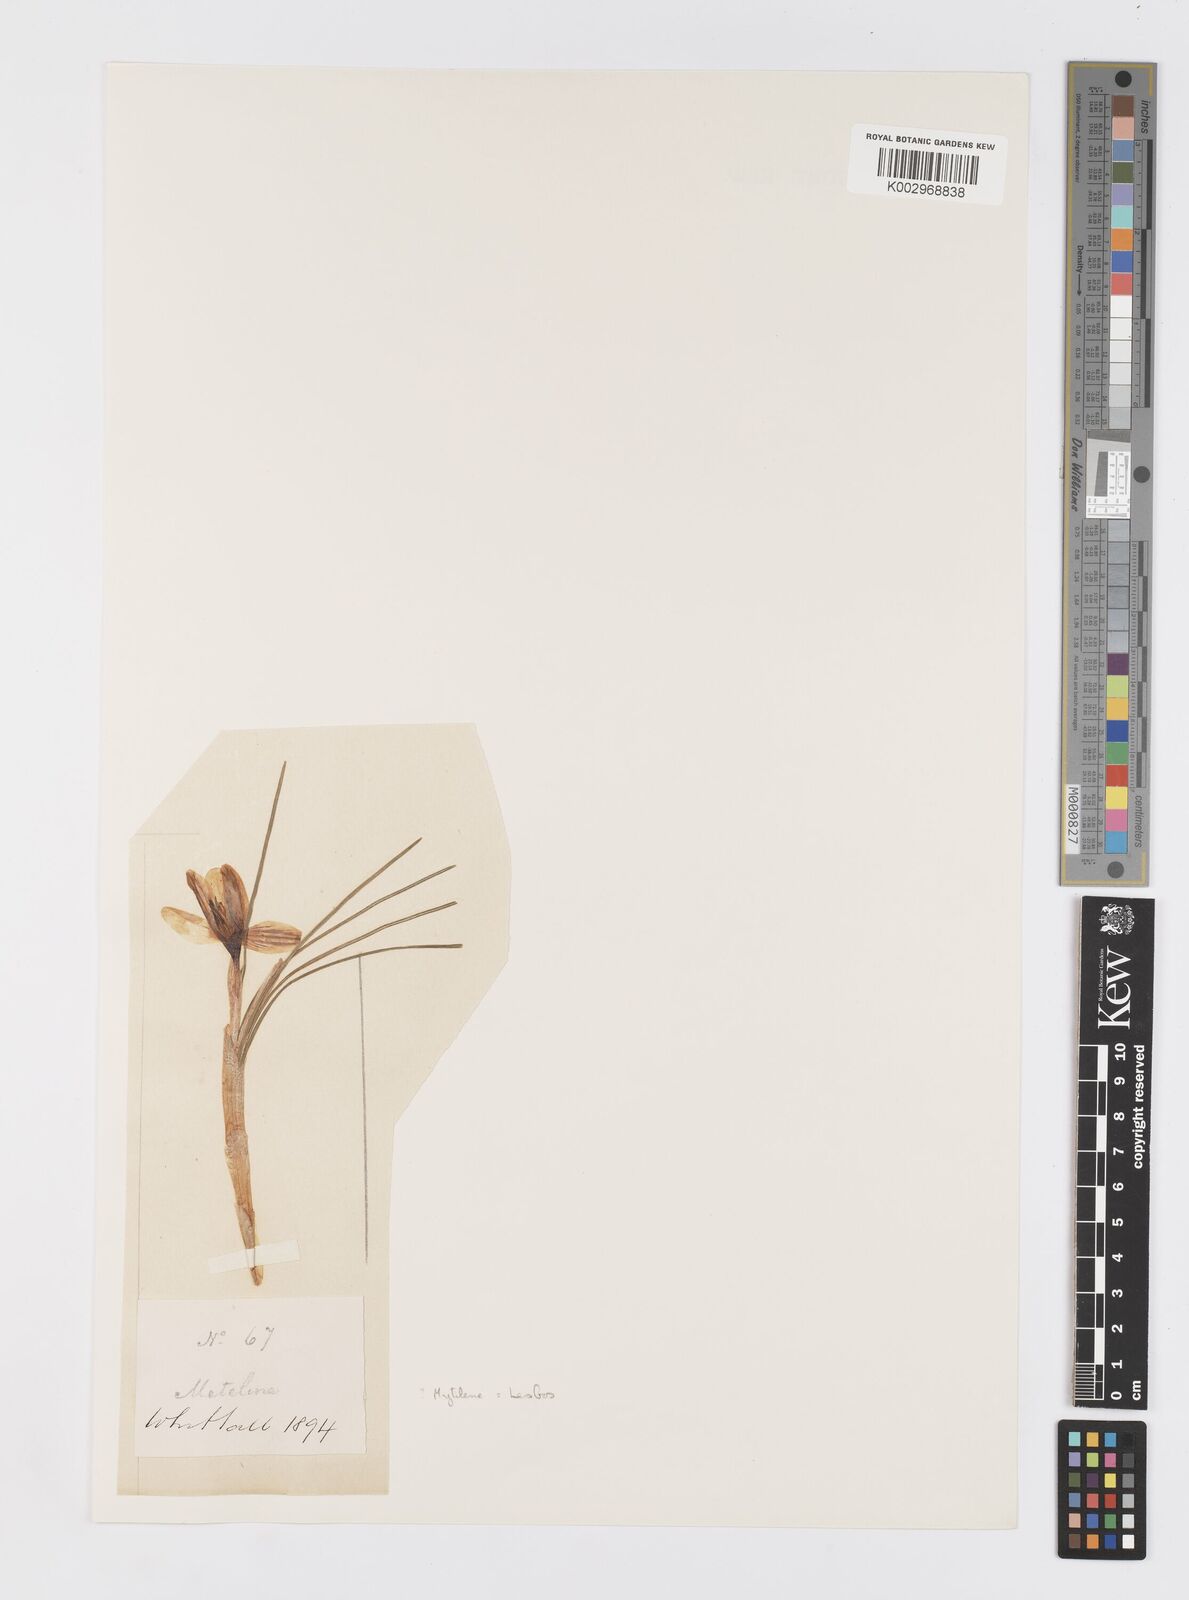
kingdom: Plantae
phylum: Tracheophyta
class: Liliopsida
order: Asparagales
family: Iridaceae
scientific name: Iridaceae
